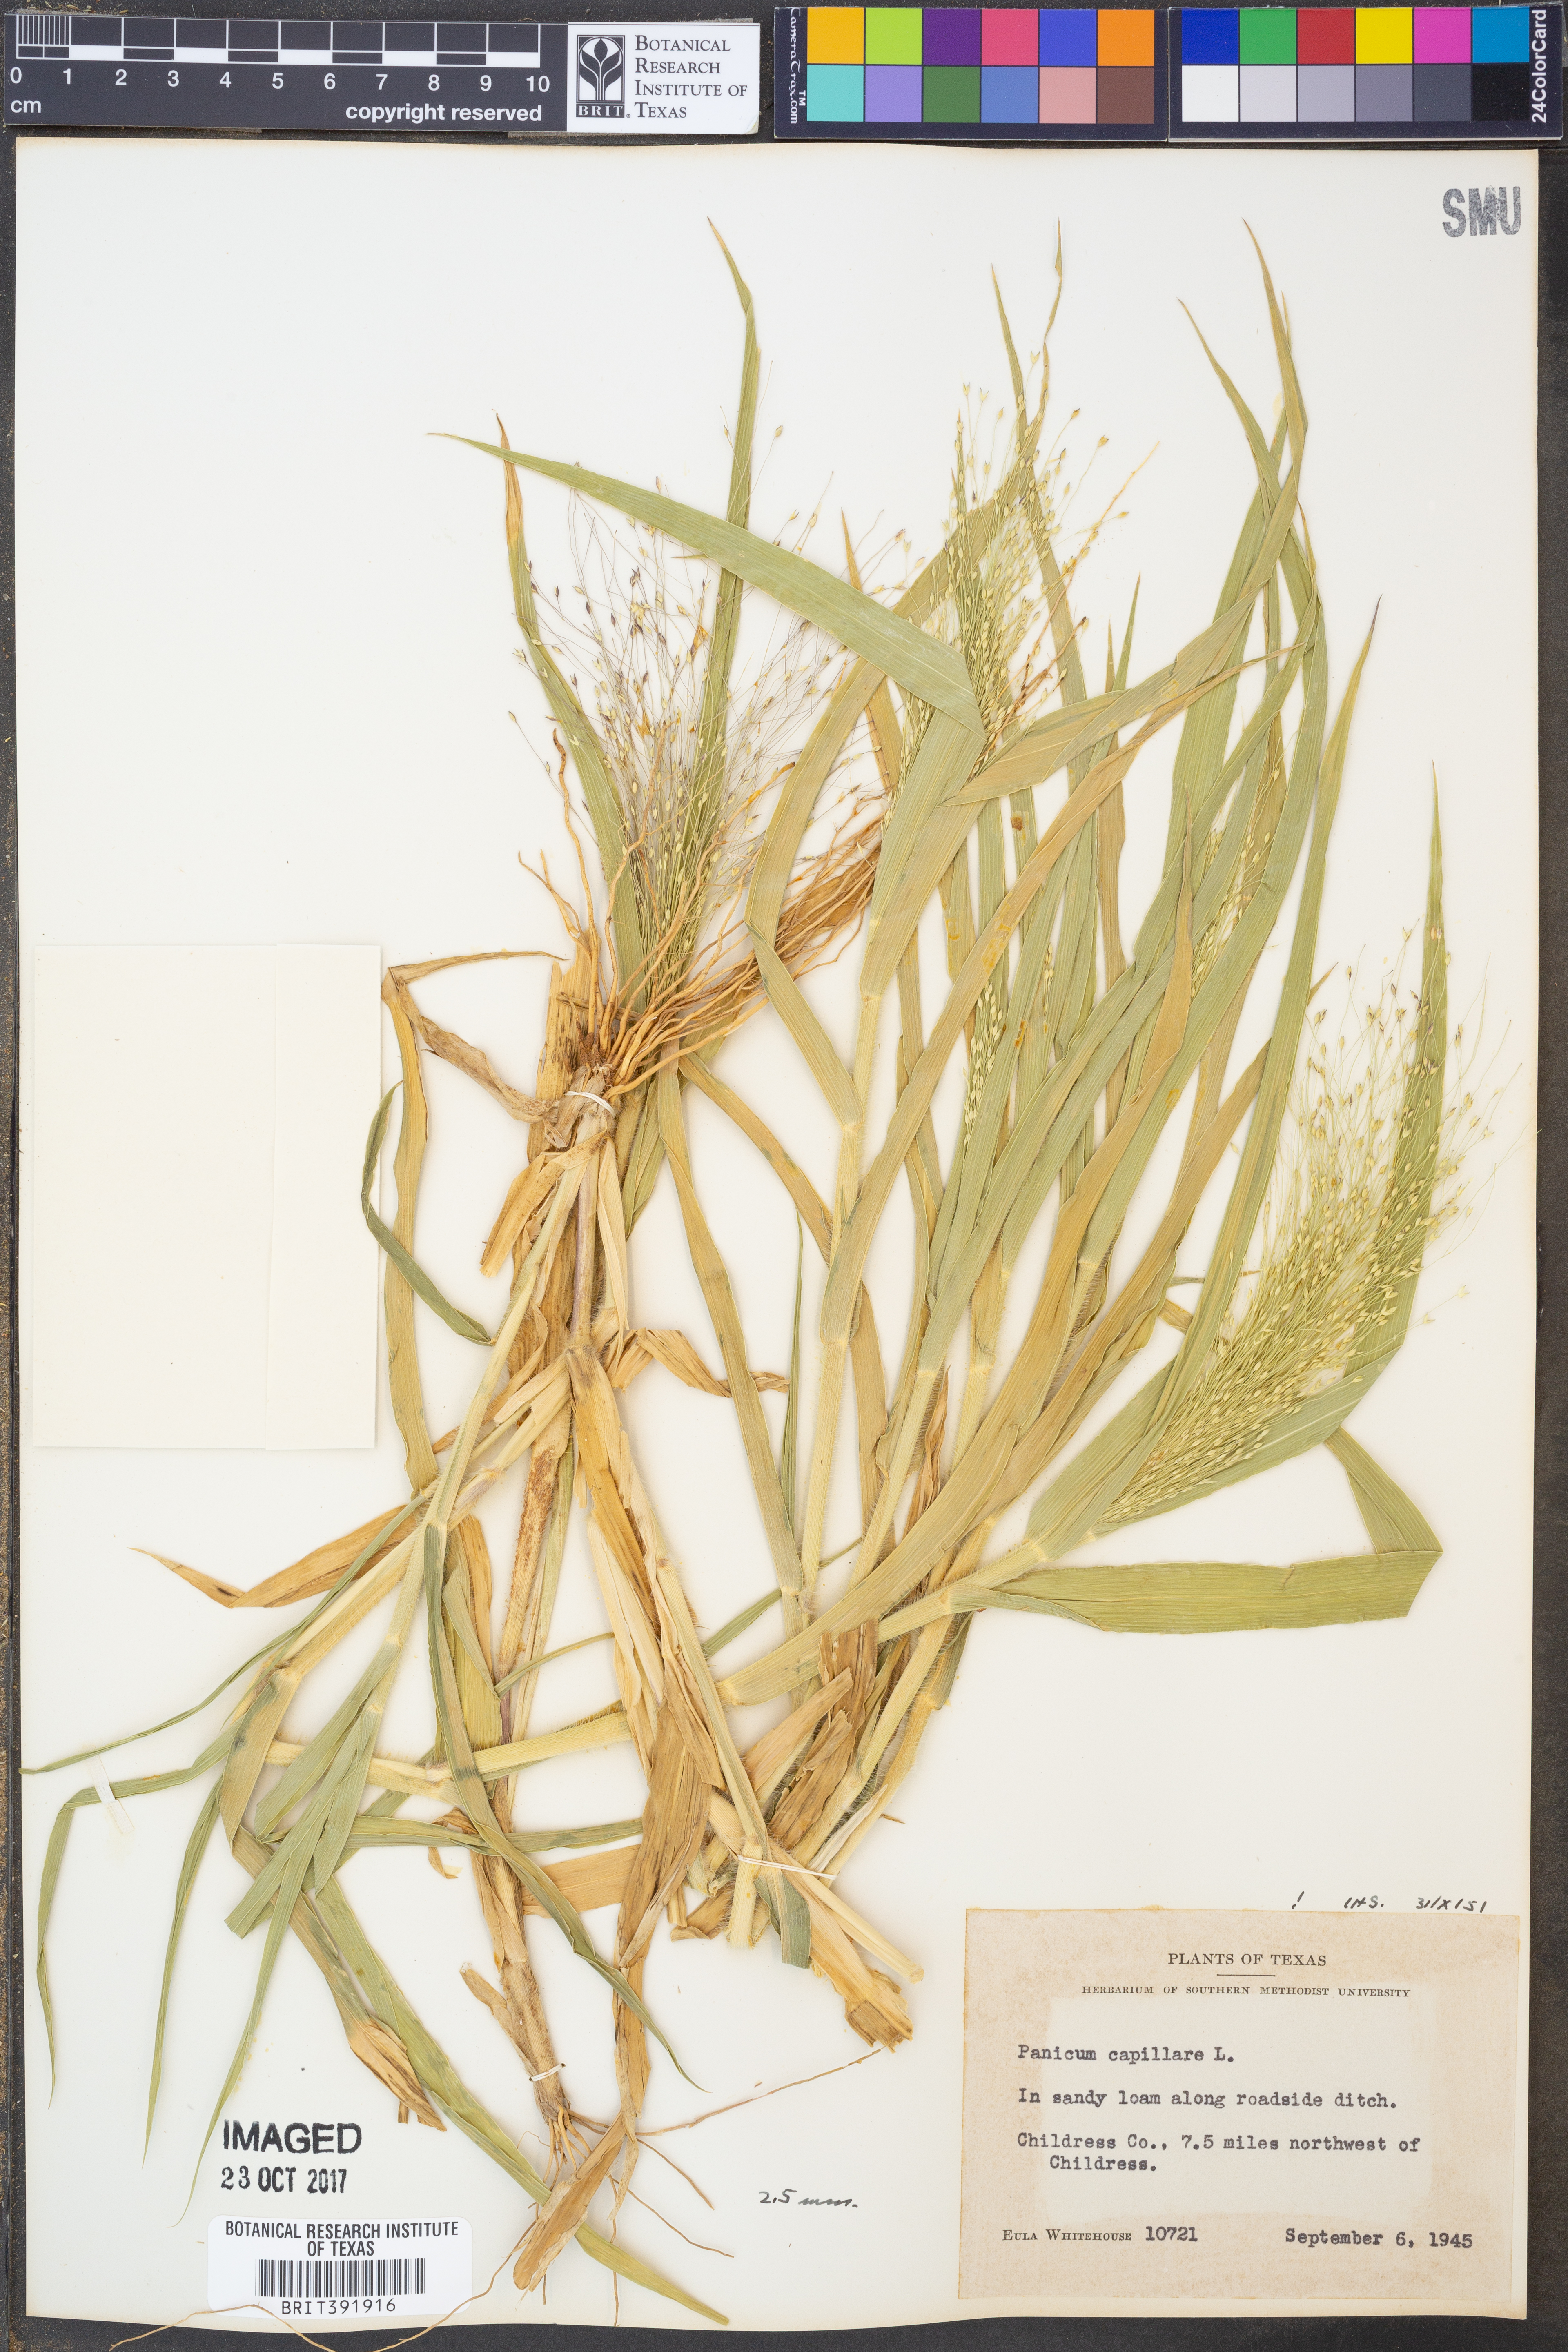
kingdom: Plantae
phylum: Tracheophyta
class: Liliopsida
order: Poales
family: Poaceae
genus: Panicum
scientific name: Panicum capillare
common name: Witch-grass
